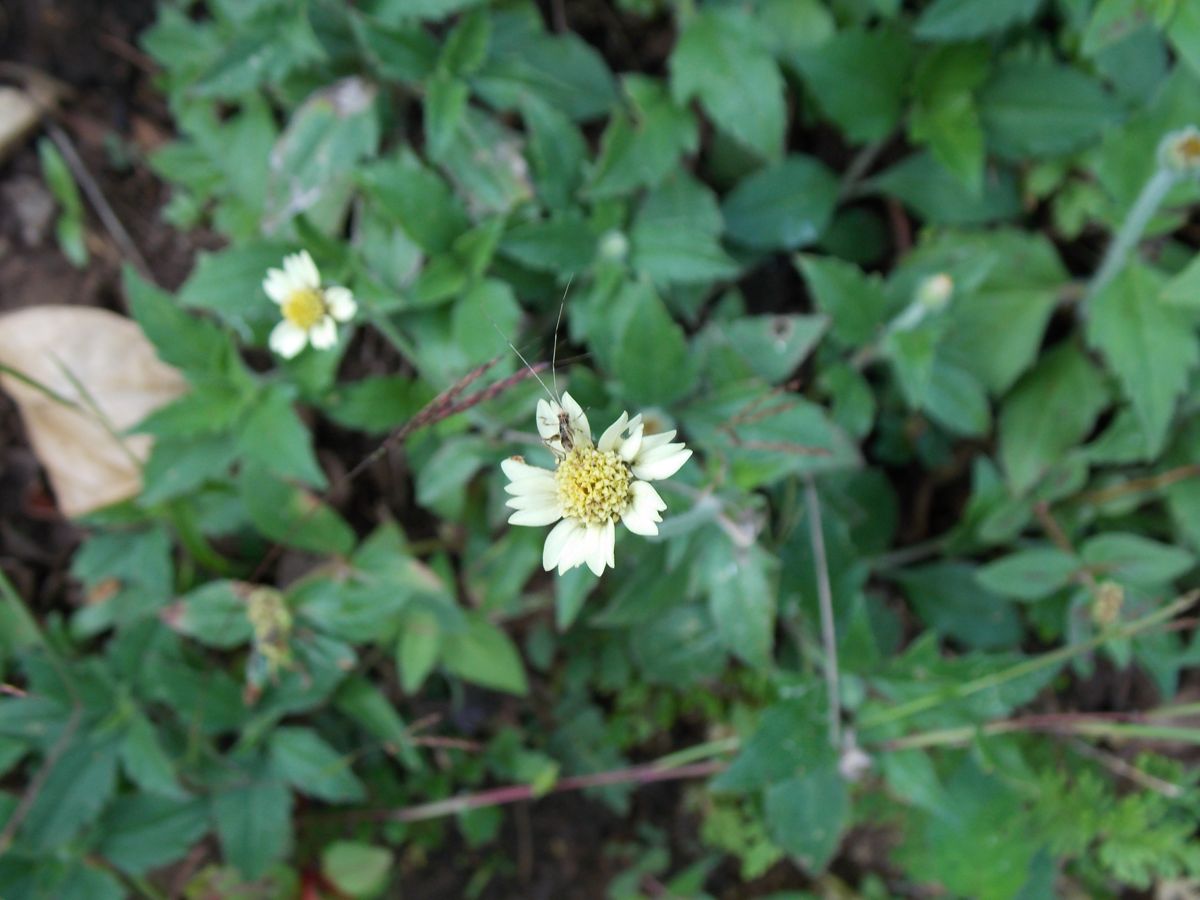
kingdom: Plantae
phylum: Tracheophyta
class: Magnoliopsida
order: Asterales
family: Asteraceae
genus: Tridax
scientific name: Tridax procumbens
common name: Coatbuttons
